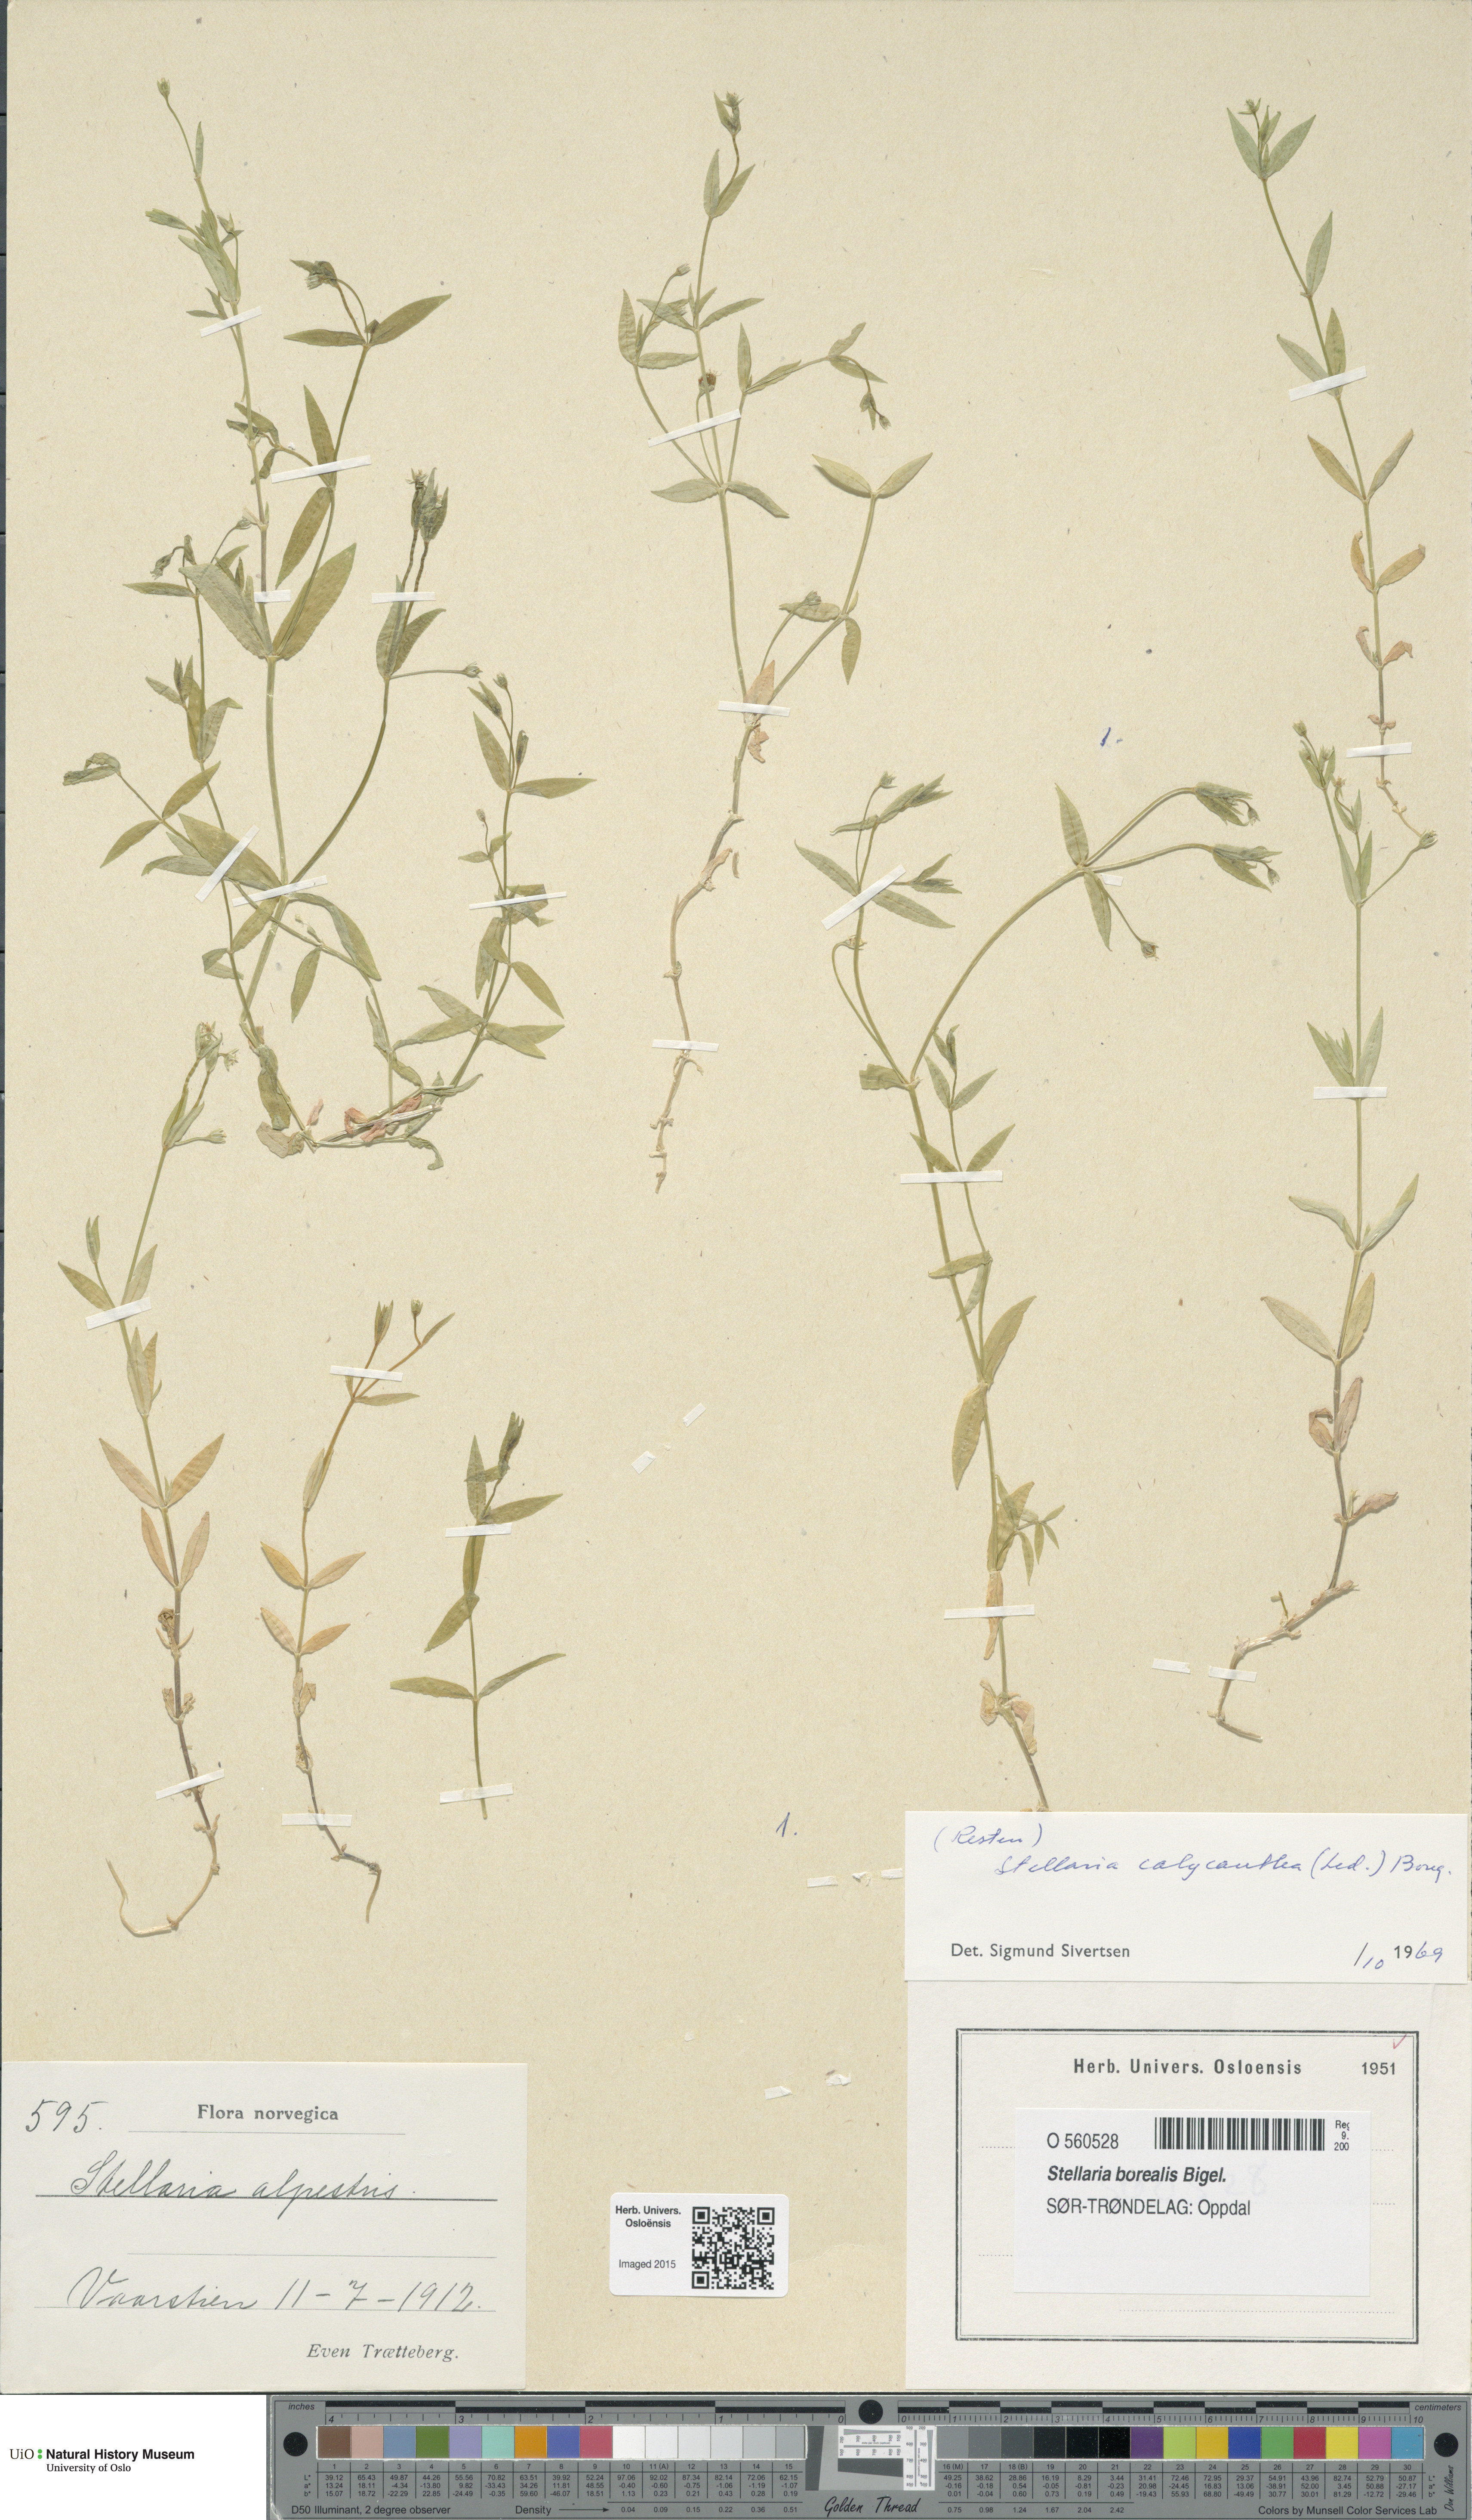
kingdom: Plantae
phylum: Tracheophyta
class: Magnoliopsida
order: Caryophyllales
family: Caryophyllaceae
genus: Stellaria
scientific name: Stellaria borealis
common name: Boreal starwort
